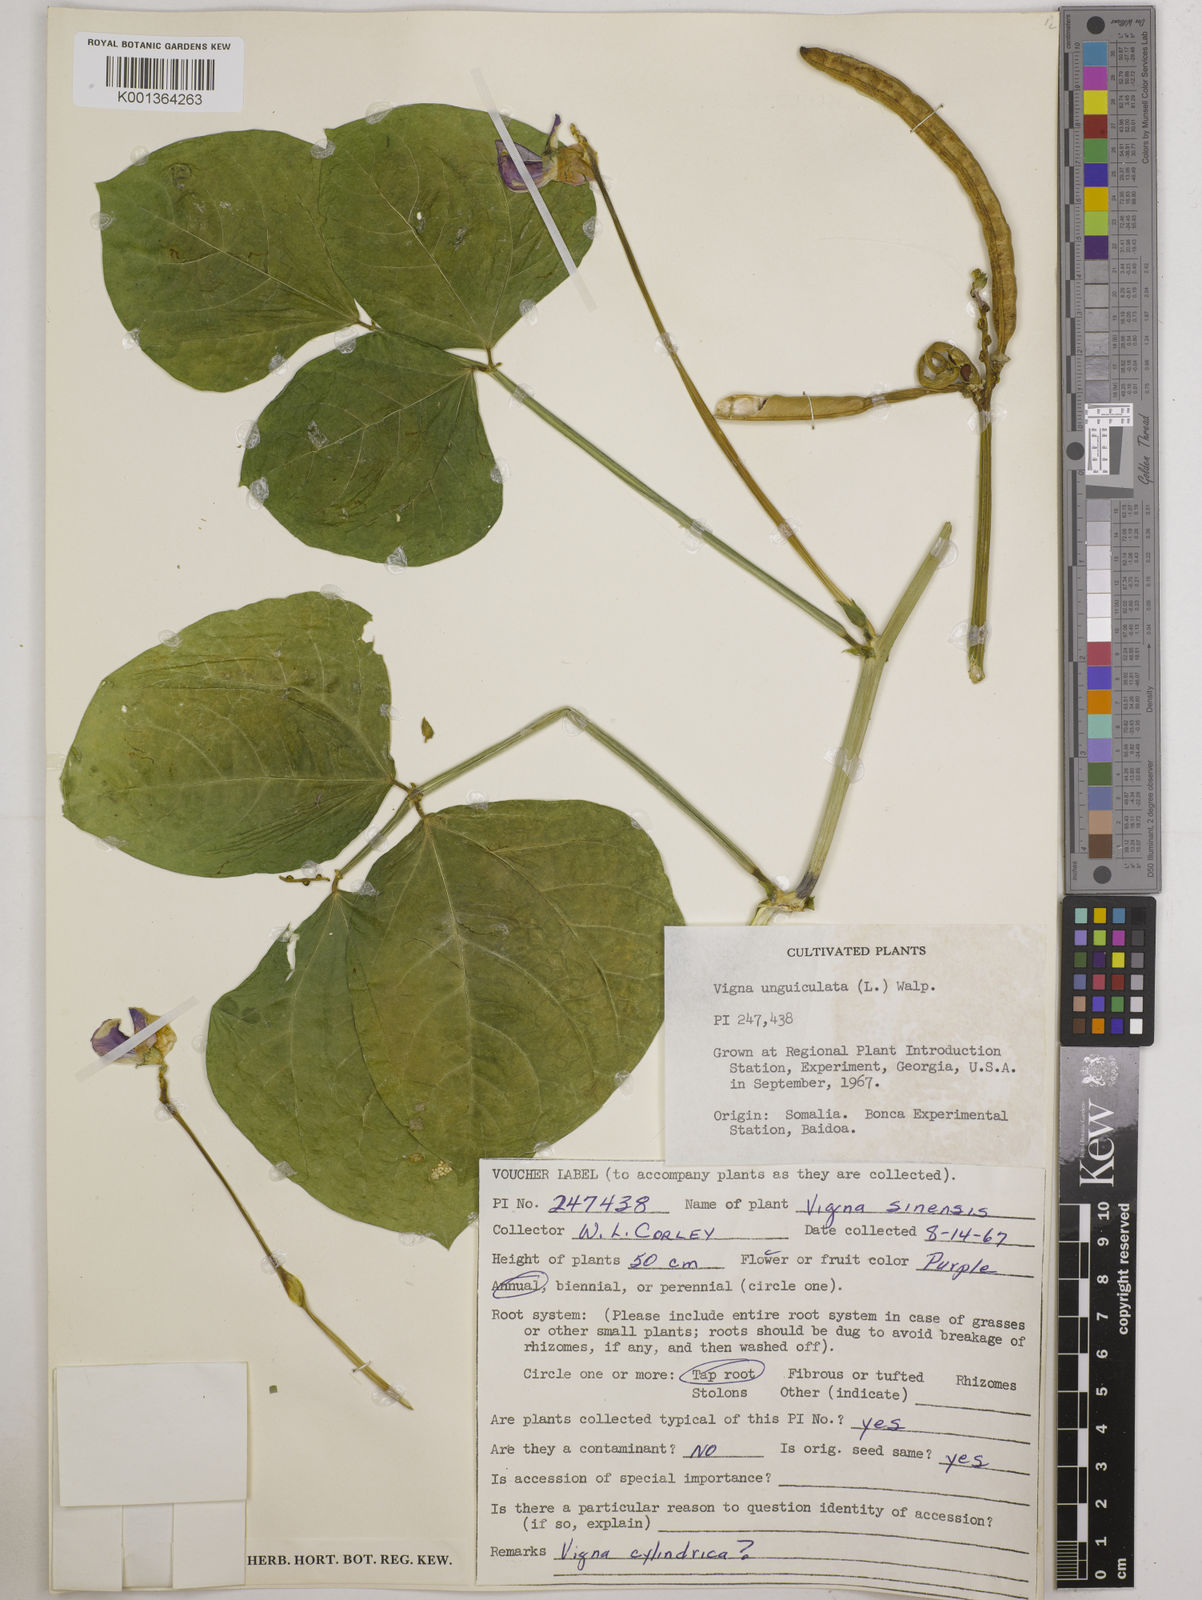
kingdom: Plantae
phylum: Tracheophyta
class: Magnoliopsida
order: Fabales
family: Fabaceae
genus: Vigna
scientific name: Vigna
